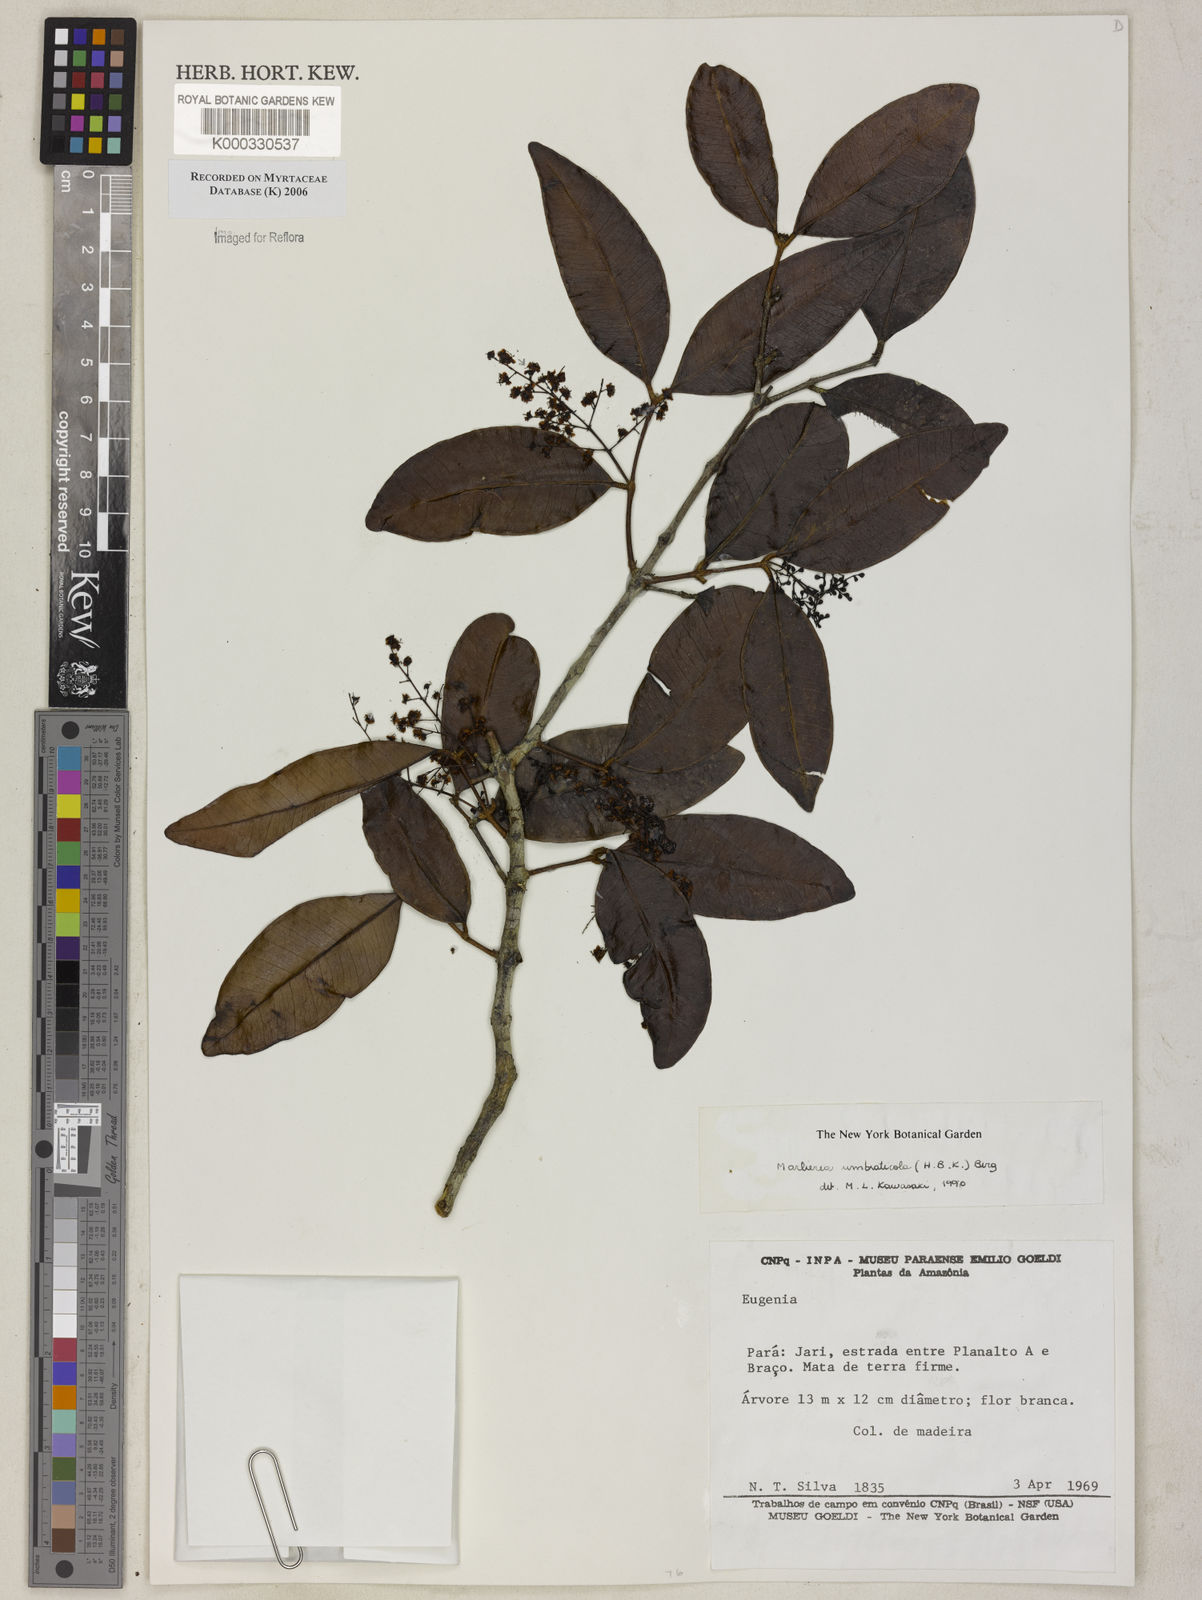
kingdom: Plantae
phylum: Tracheophyta
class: Magnoliopsida
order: Myrtales
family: Myrtaceae
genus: Myrcia
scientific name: Myrcia umbraticola
